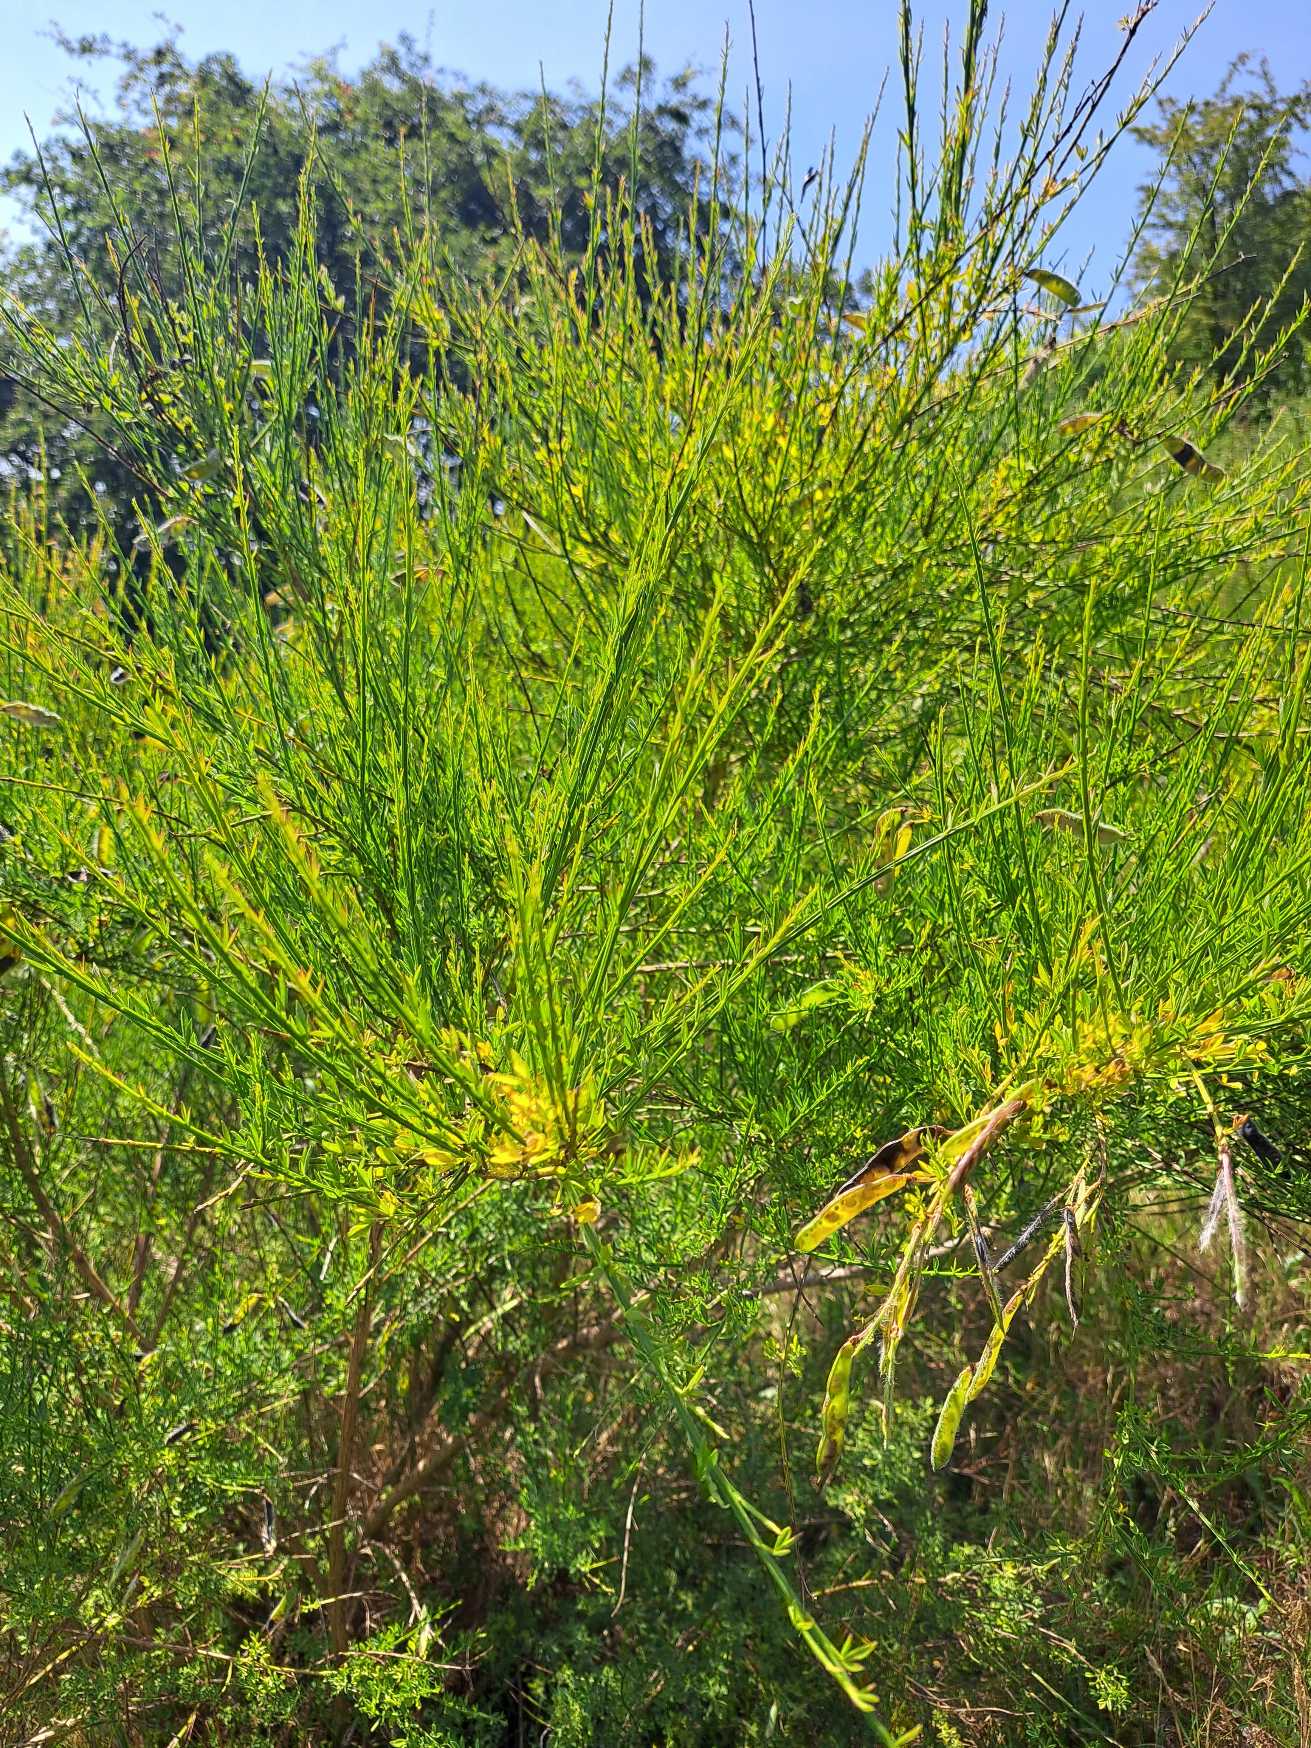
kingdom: Plantae
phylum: Tracheophyta
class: Magnoliopsida
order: Fabales
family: Fabaceae
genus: Cytisus
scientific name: Cytisus scoparius
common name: Almindelig gyvel
